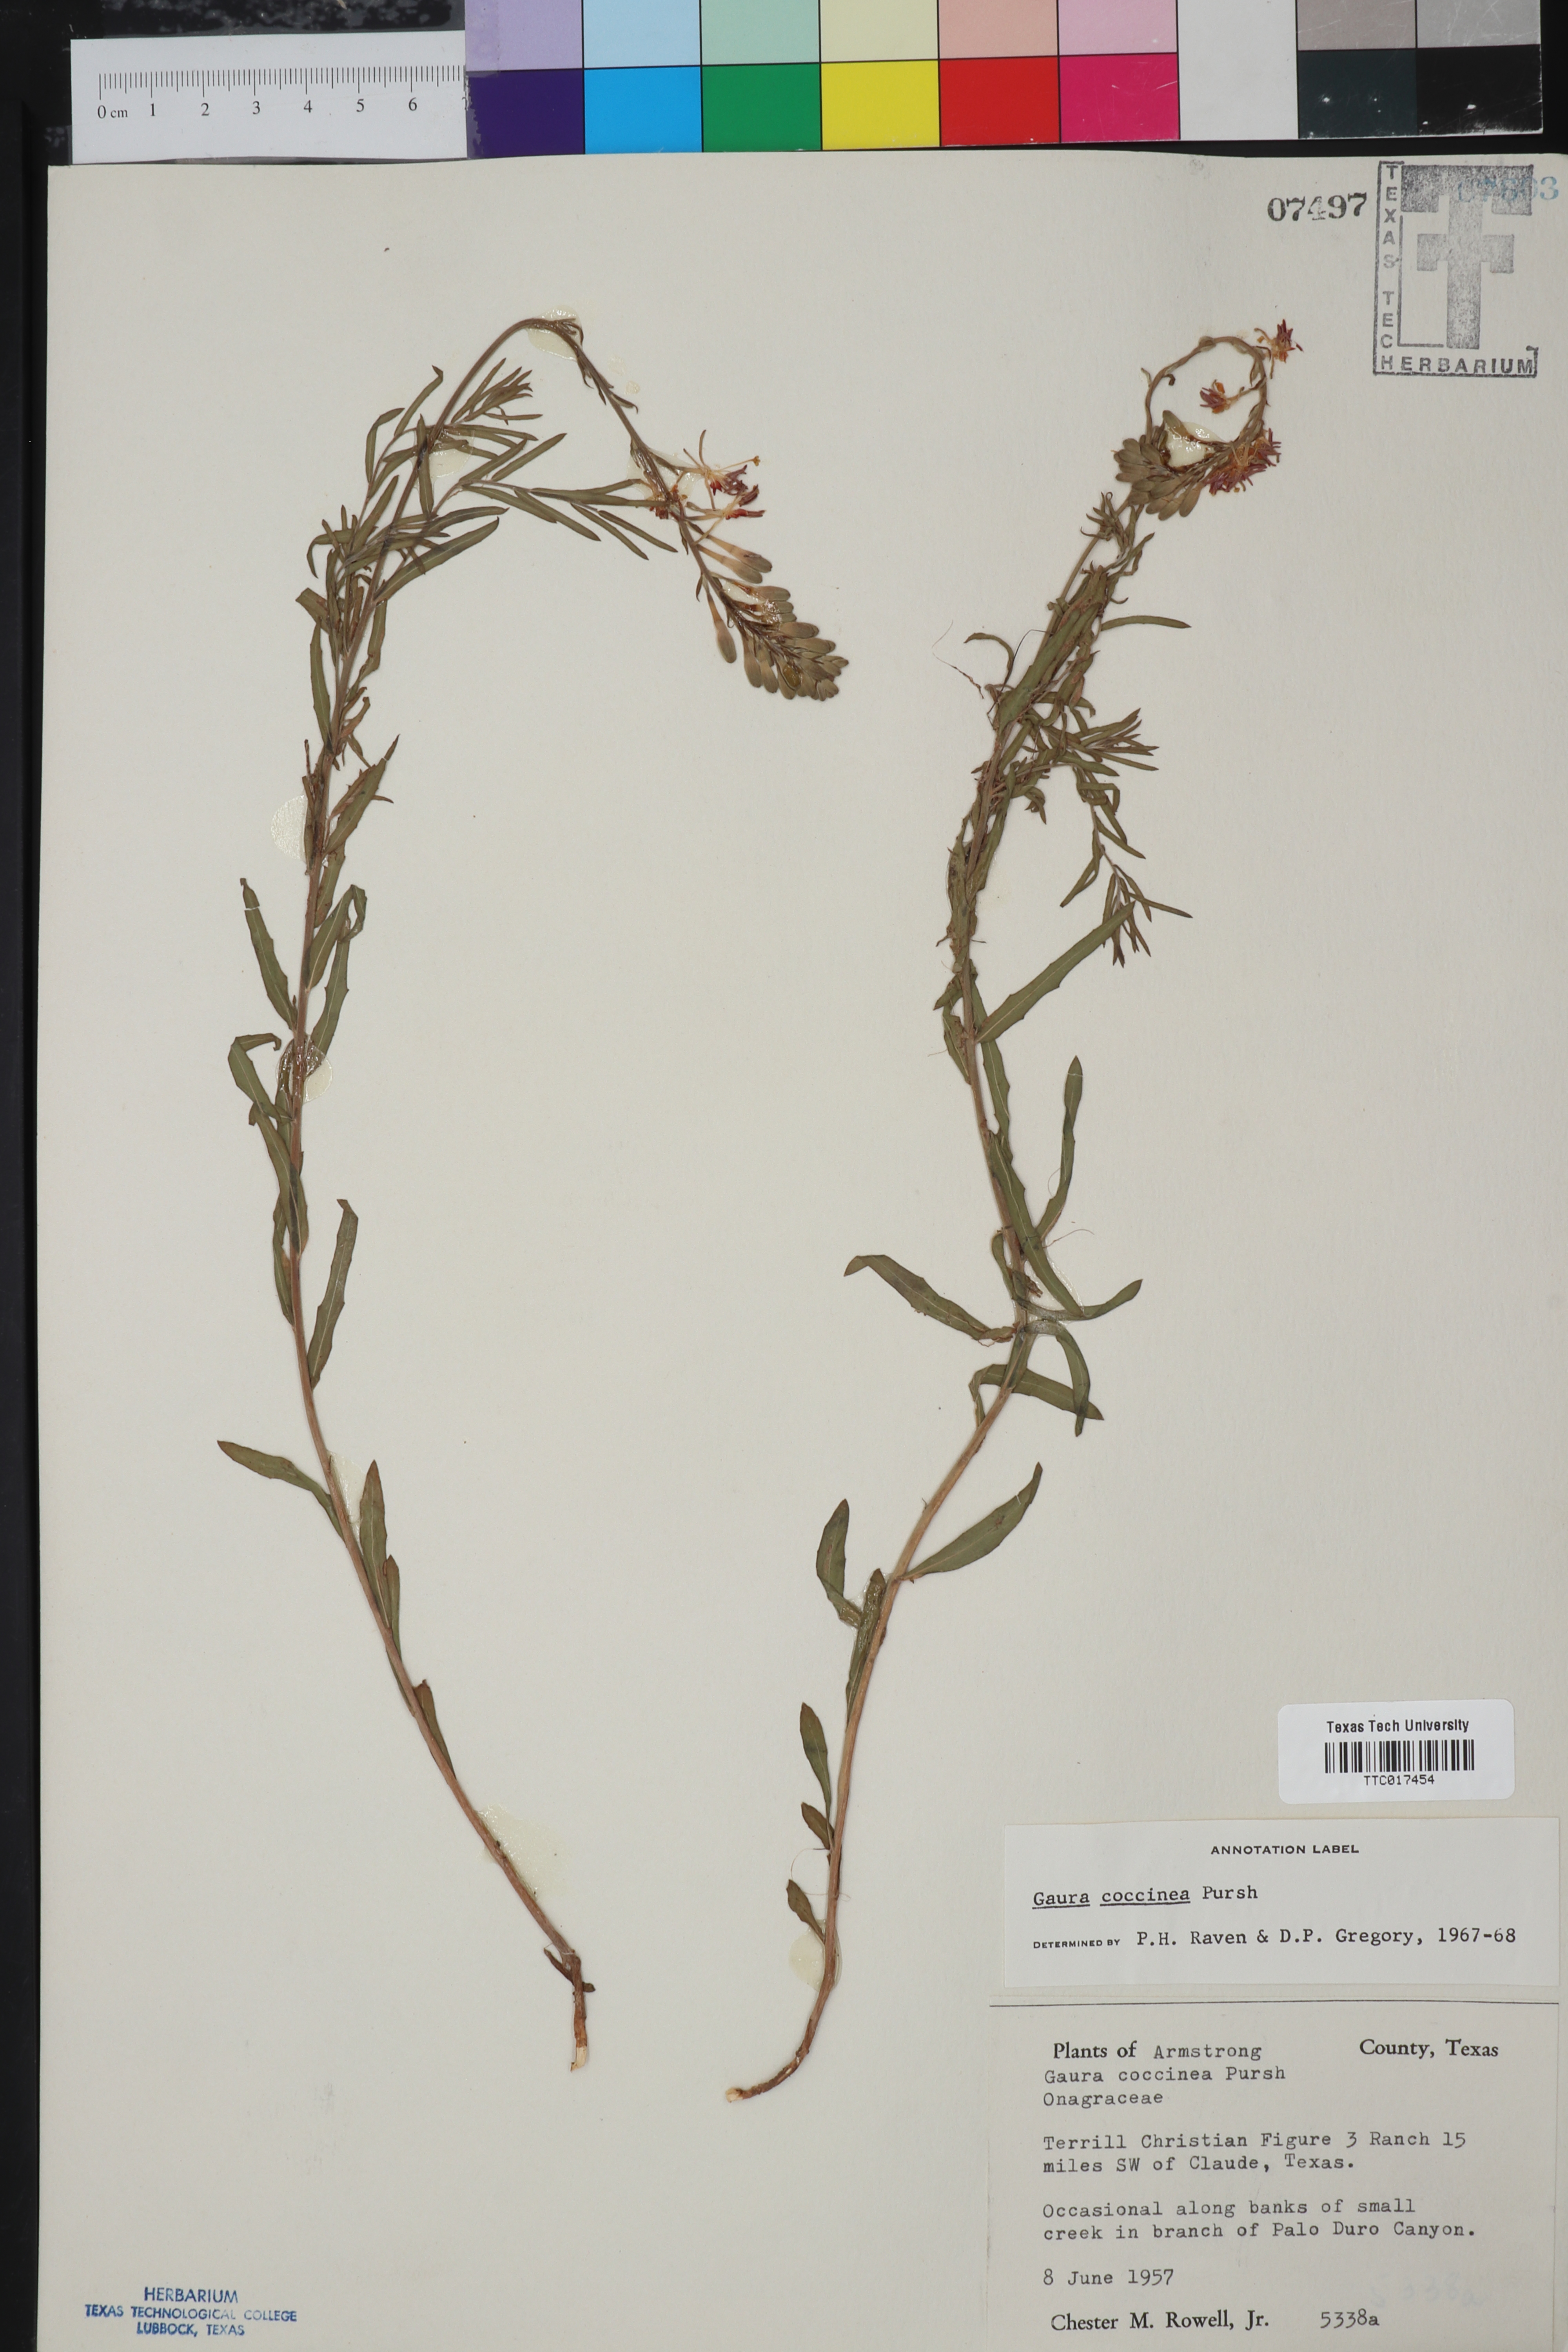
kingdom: Plantae
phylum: Tracheophyta
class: Magnoliopsida
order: Myrtales
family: Onagraceae
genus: Oenothera
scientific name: Oenothera suffrutescens
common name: Scarlet beeblossom
